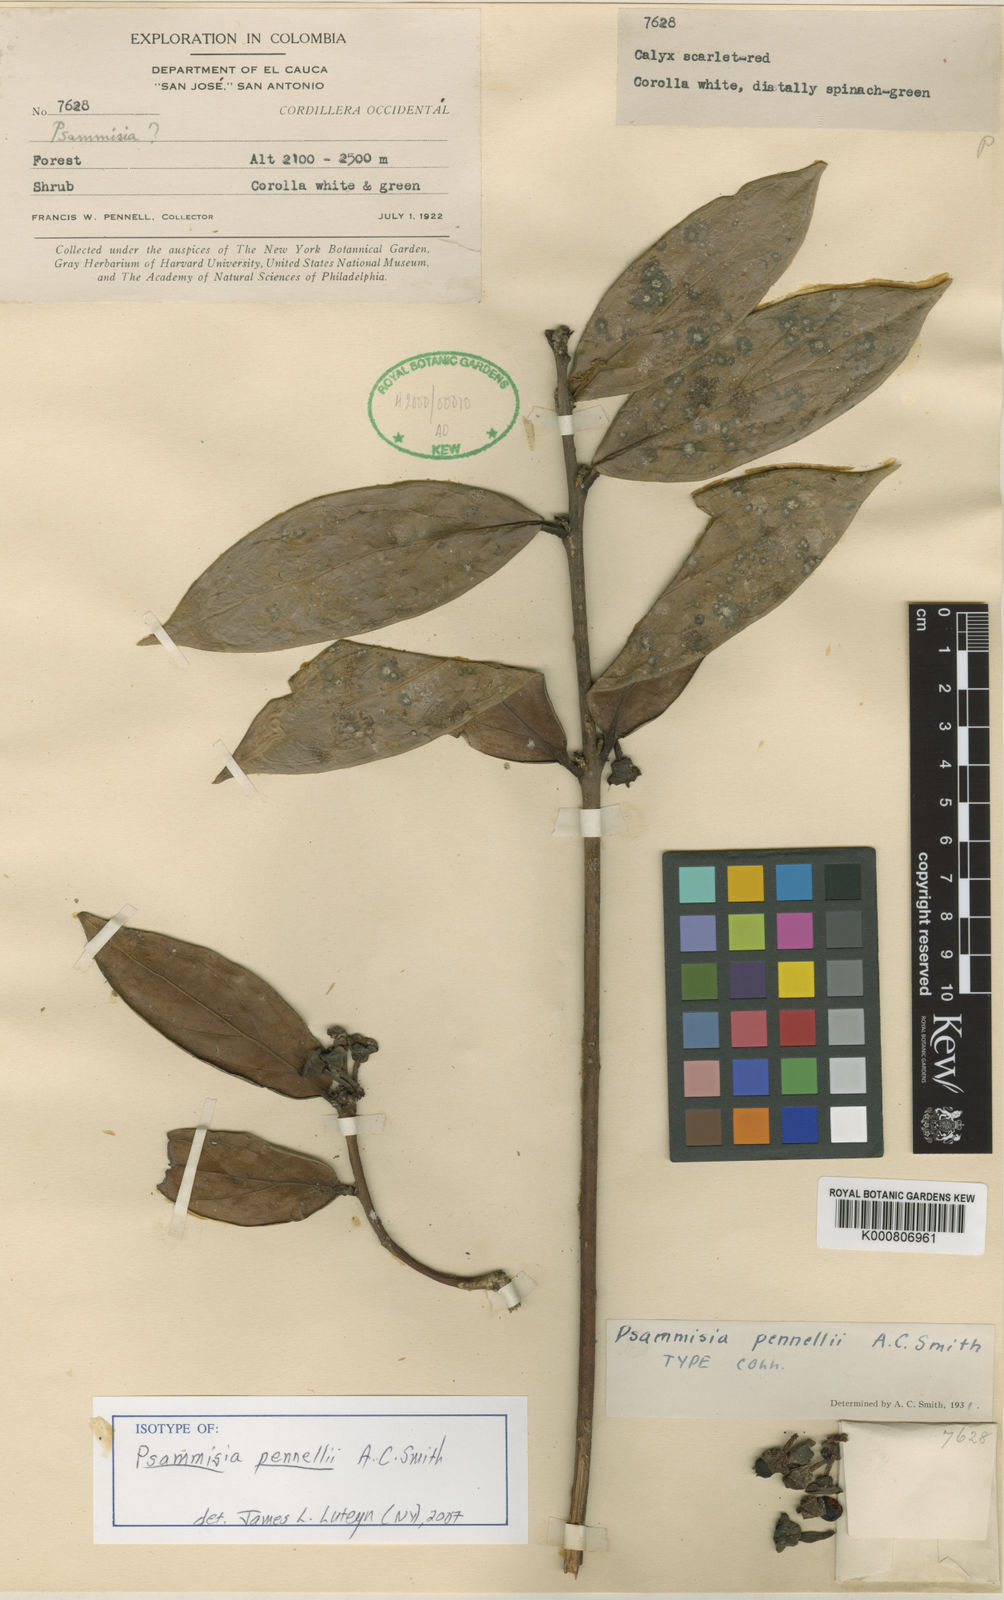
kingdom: Plantae
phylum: Tracheophyta
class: Magnoliopsida
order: Ericales
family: Ericaceae
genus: Psammisia
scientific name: Psammisia pennellii
